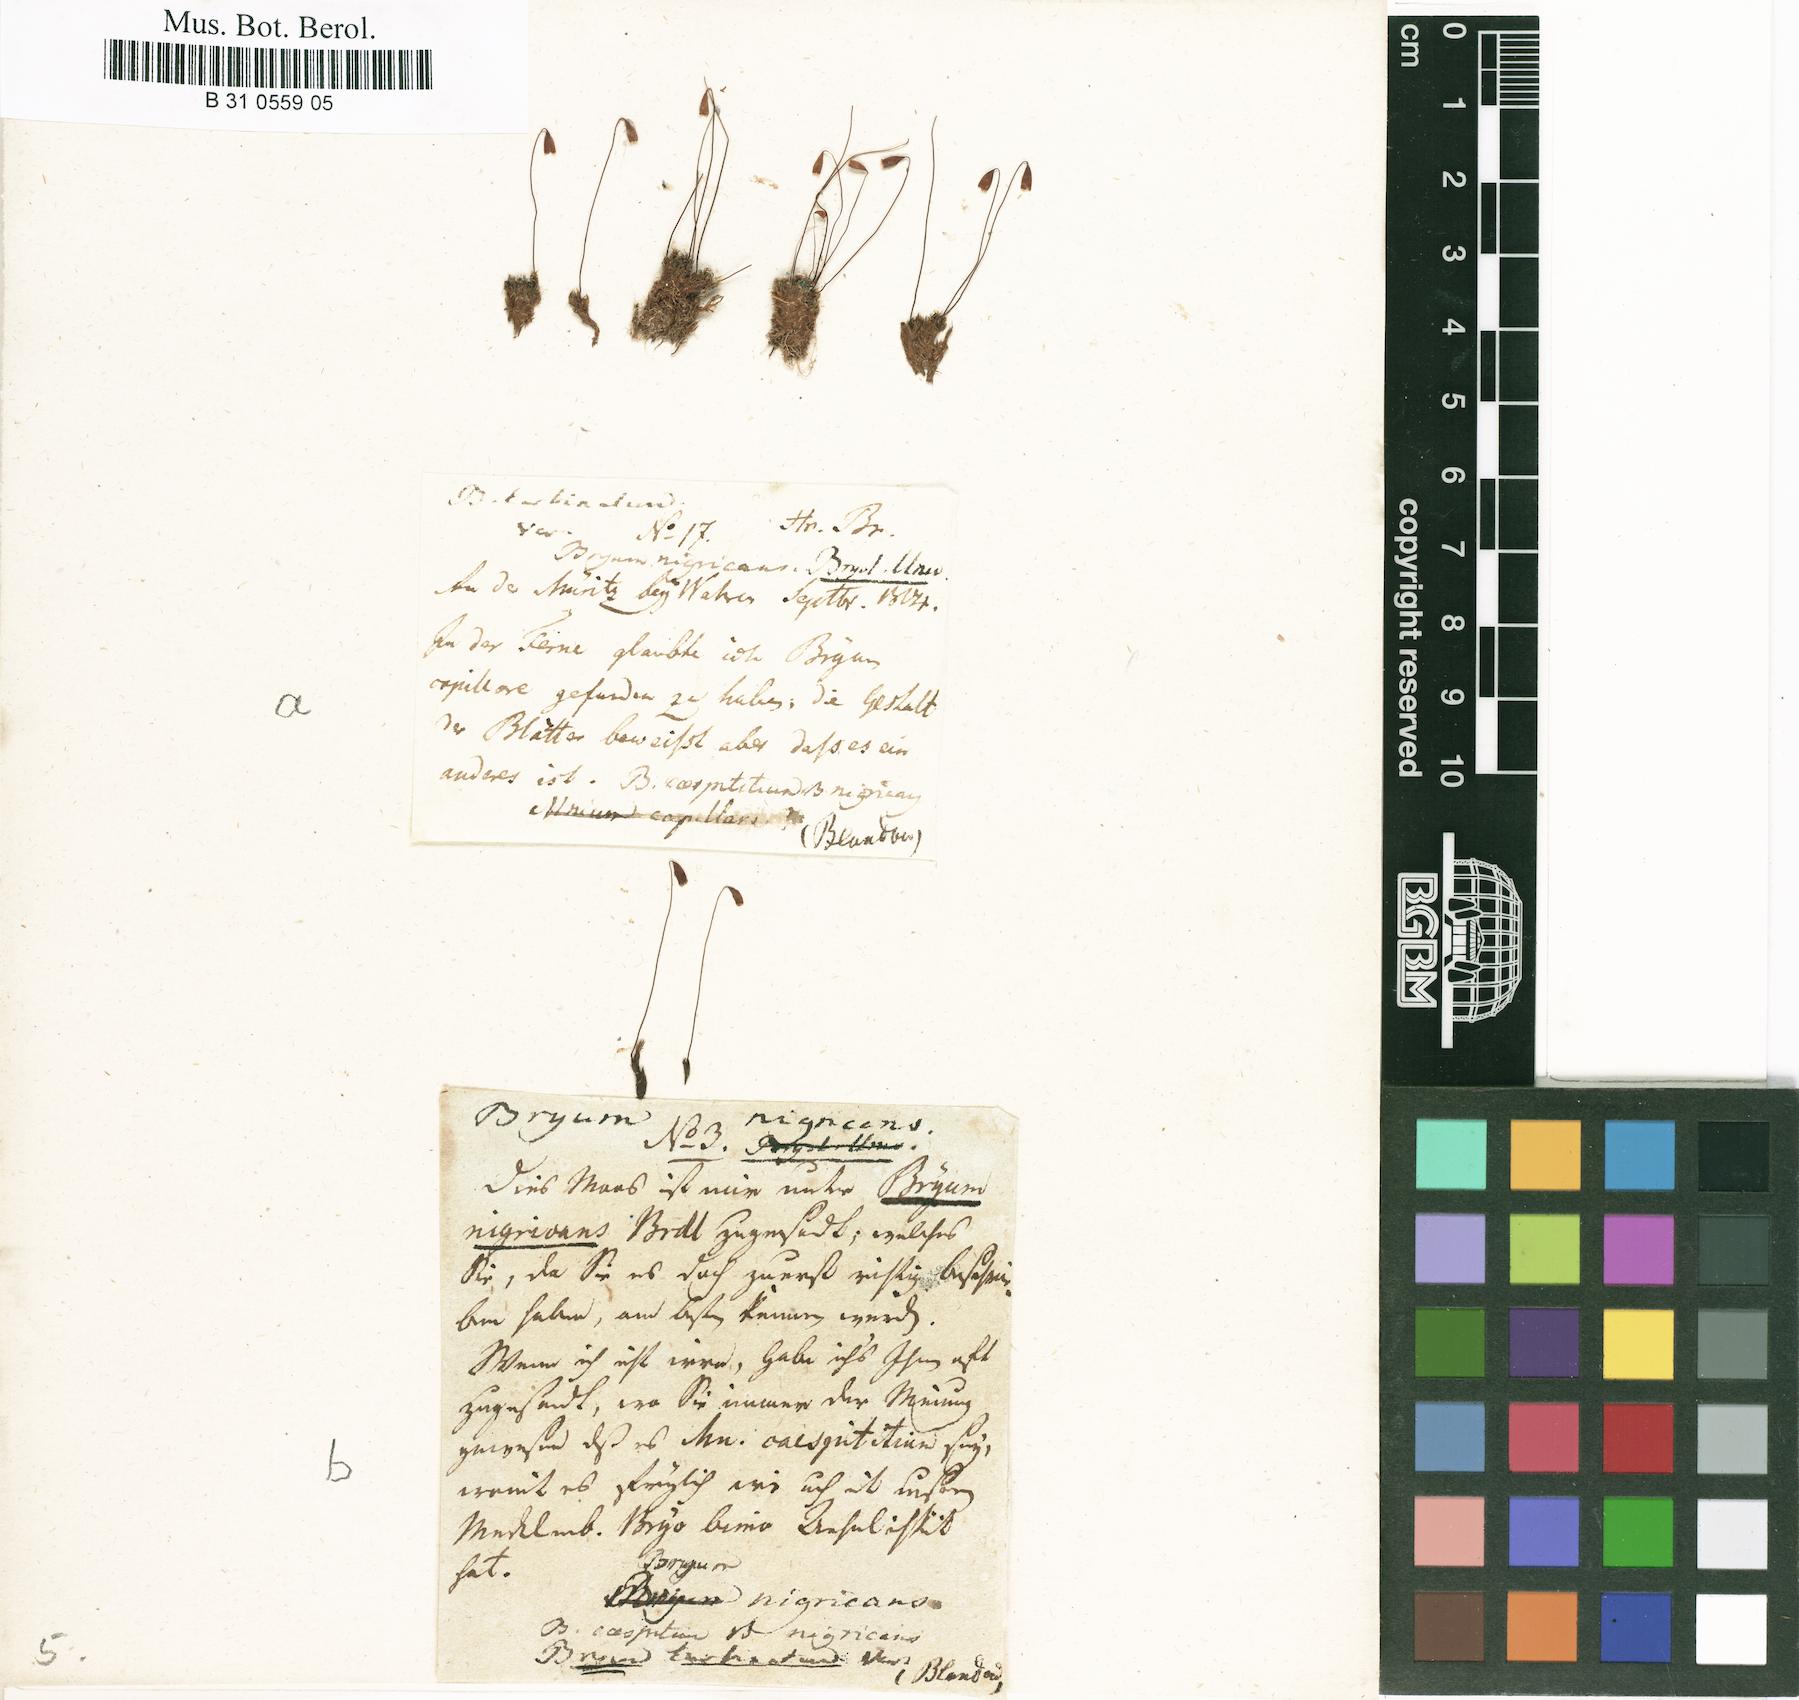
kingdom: Plantae
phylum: Bryophyta
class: Bryopsida
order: Bryales
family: Bryaceae
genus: Ptychostomum
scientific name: Ptychostomum turbinatum
